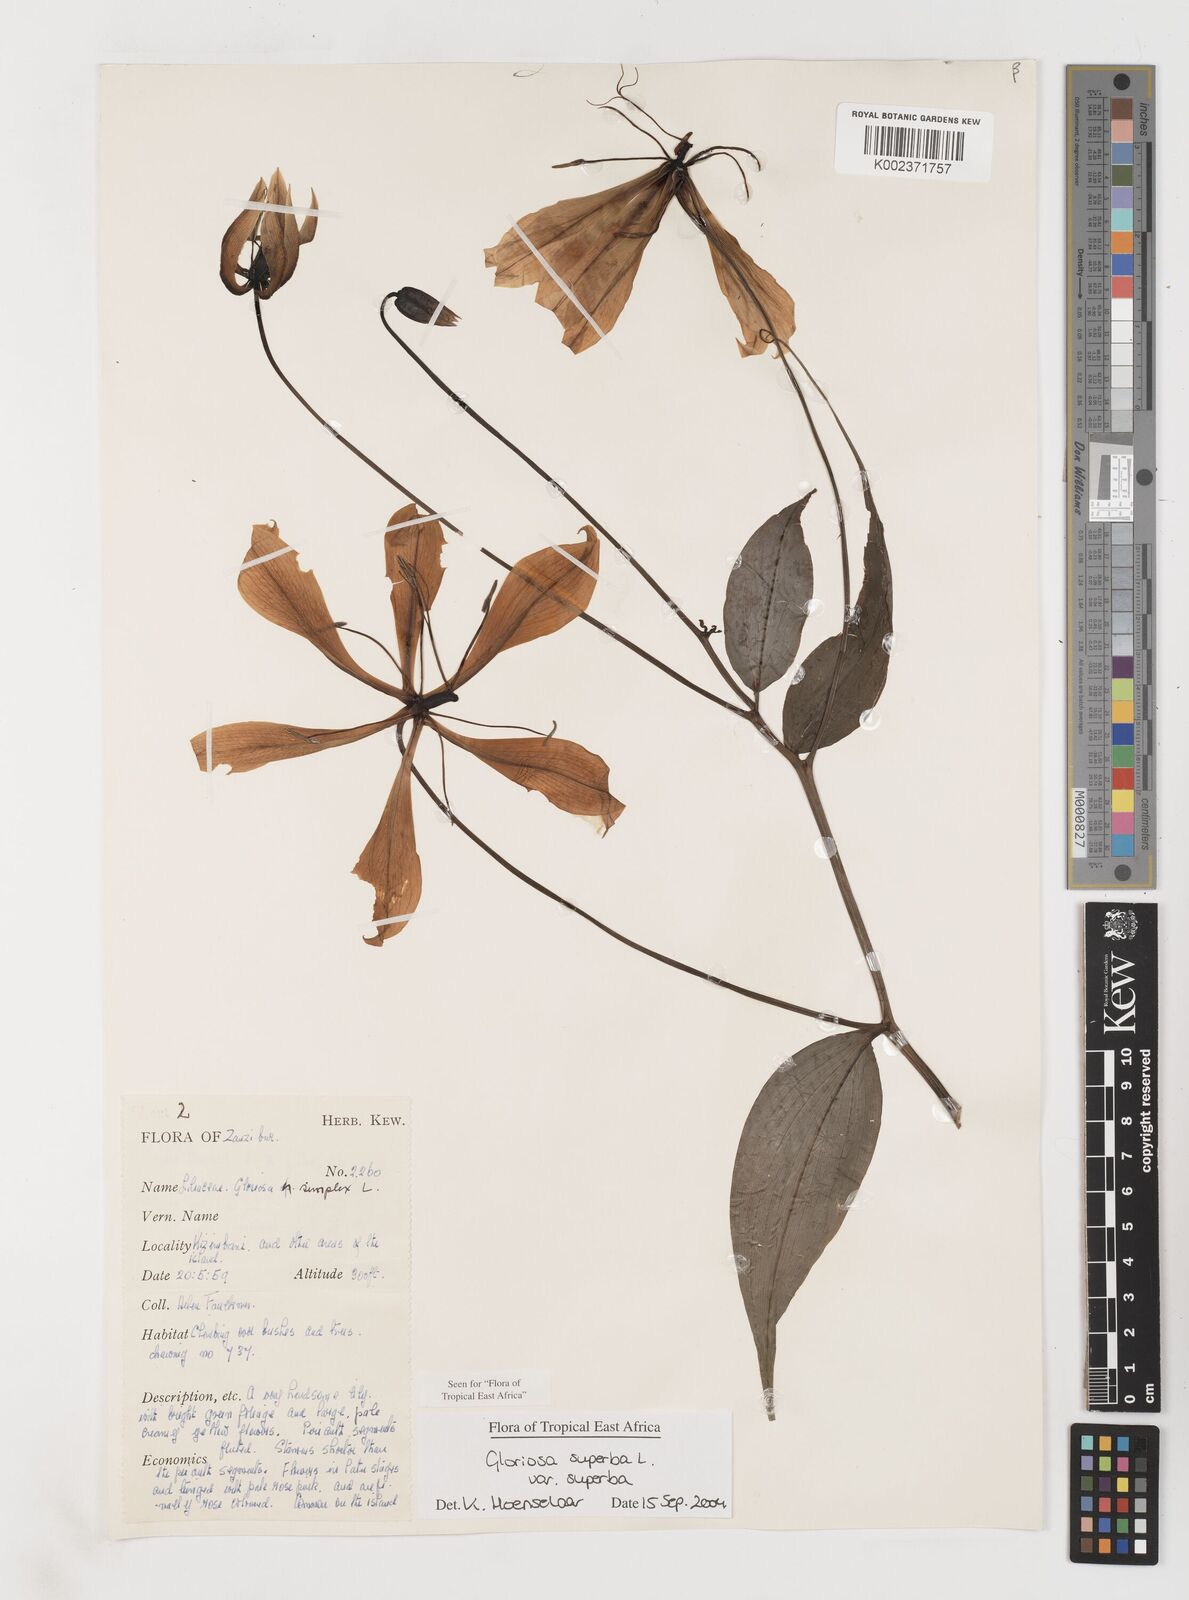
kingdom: Plantae
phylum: Tracheophyta
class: Liliopsida
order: Liliales
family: Colchicaceae
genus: Gloriosa
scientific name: Gloriosa simplex
